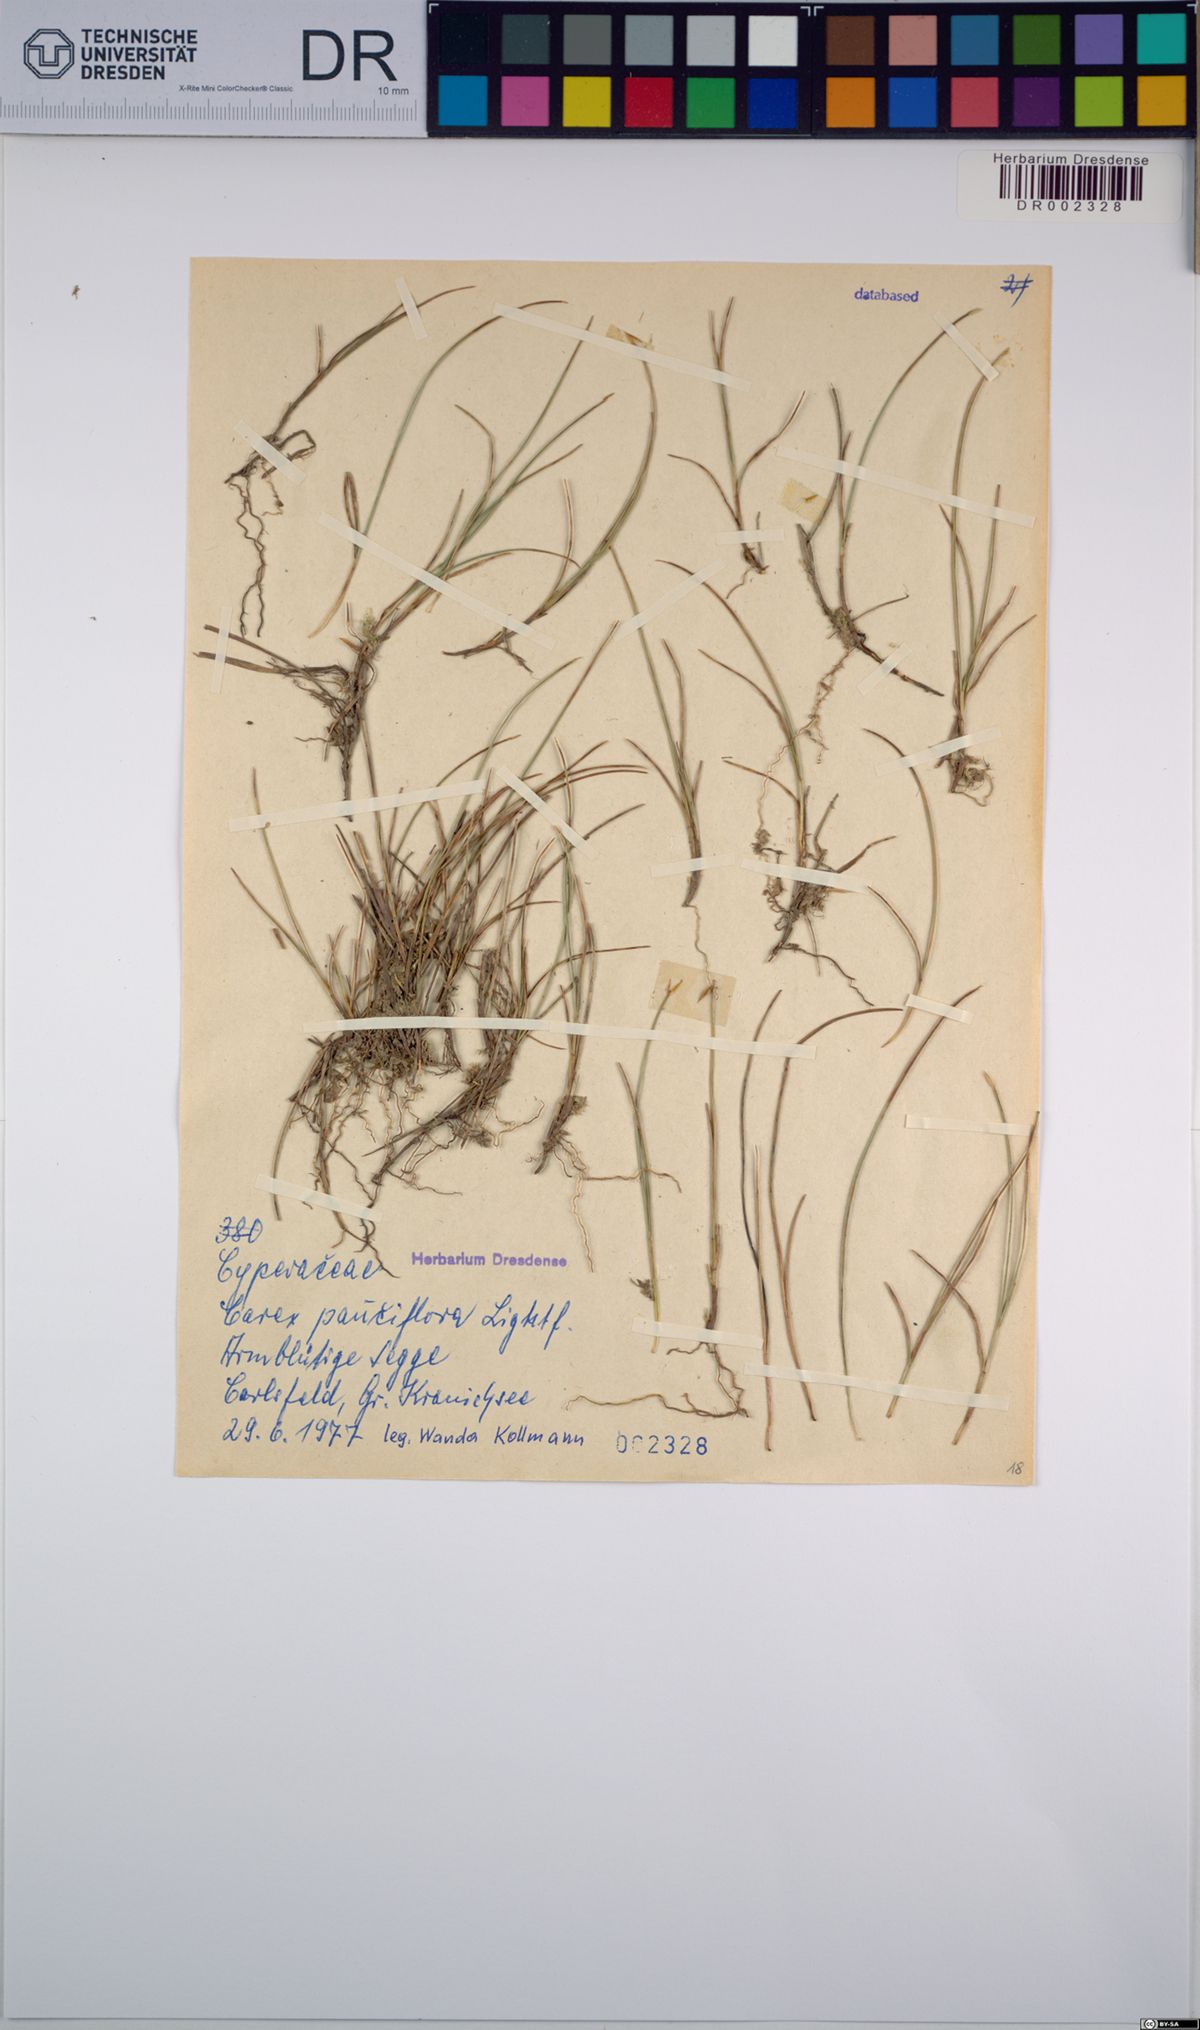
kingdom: Plantae
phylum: Tracheophyta
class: Liliopsida
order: Poales
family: Cyperaceae
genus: Carex
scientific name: Carex pauciflora
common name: Few-flowered sedge
